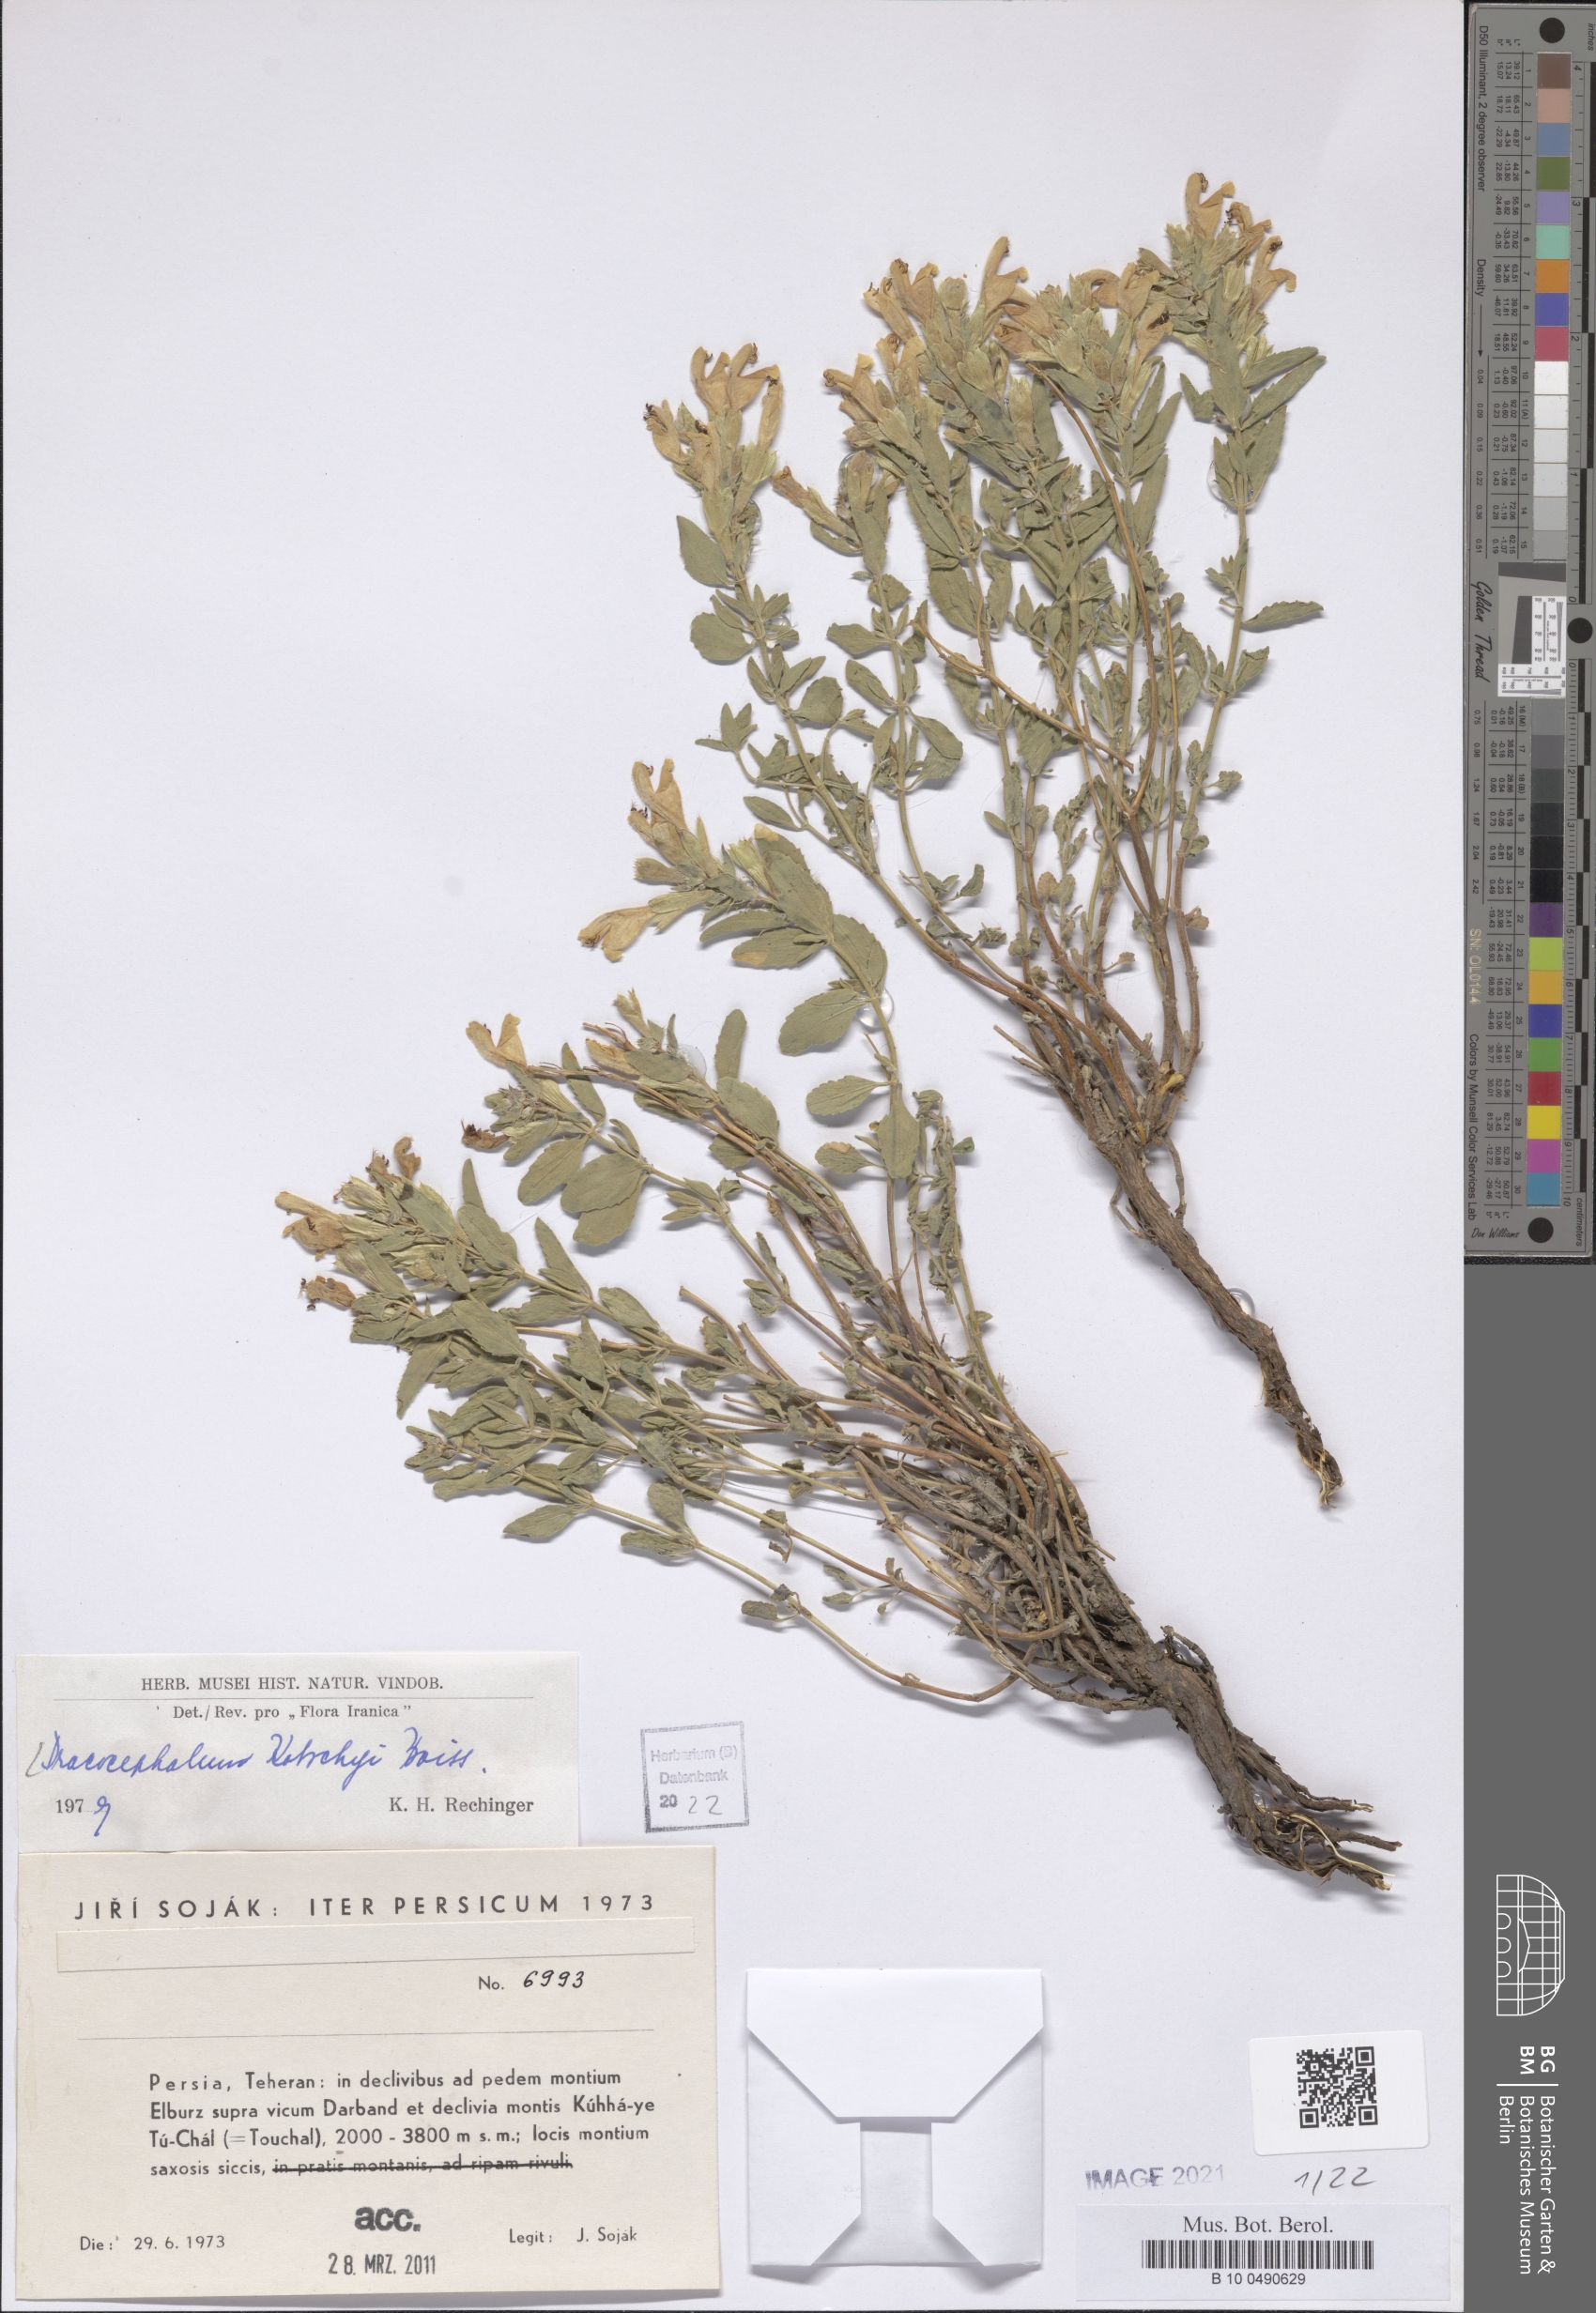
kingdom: Plantae
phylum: Tracheophyta
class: Magnoliopsida
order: Lamiales
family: Lamiaceae
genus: Dracocephalum
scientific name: Dracocephalum kotschyi
